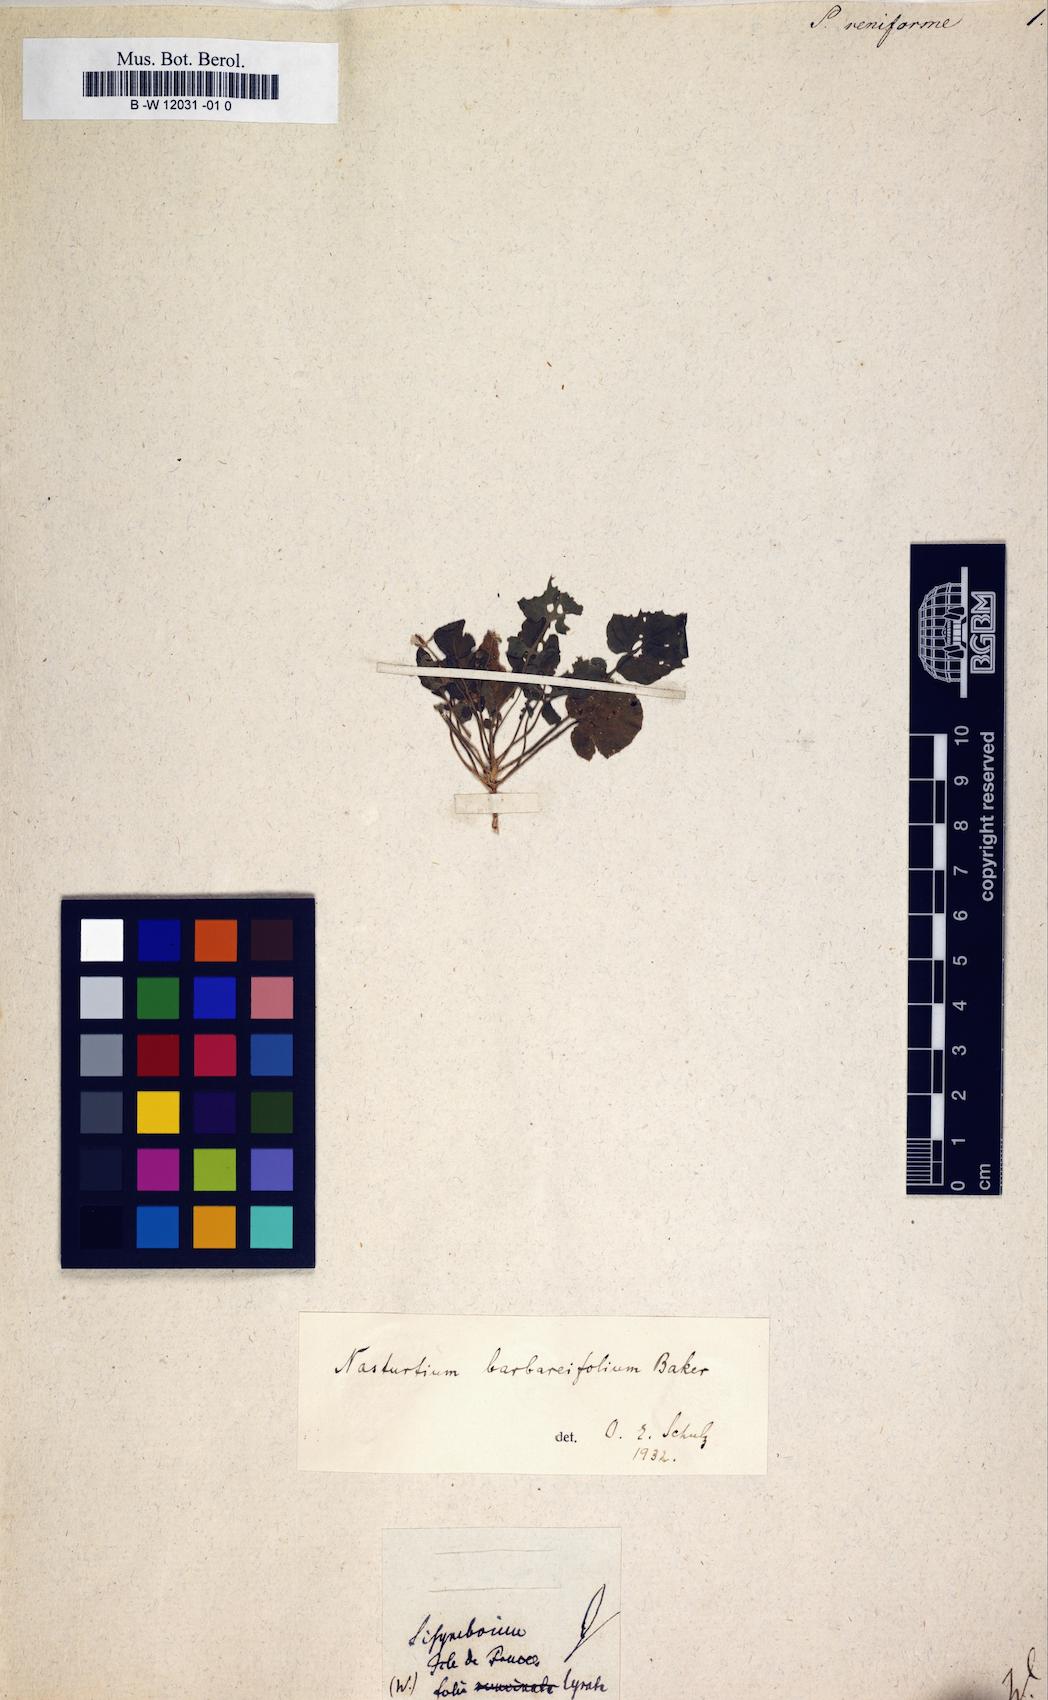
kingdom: Plantae
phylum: Tracheophyta
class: Magnoliopsida
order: Brassicales
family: Brassicaceae
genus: Sisymbrium
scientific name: Sisymbrium
